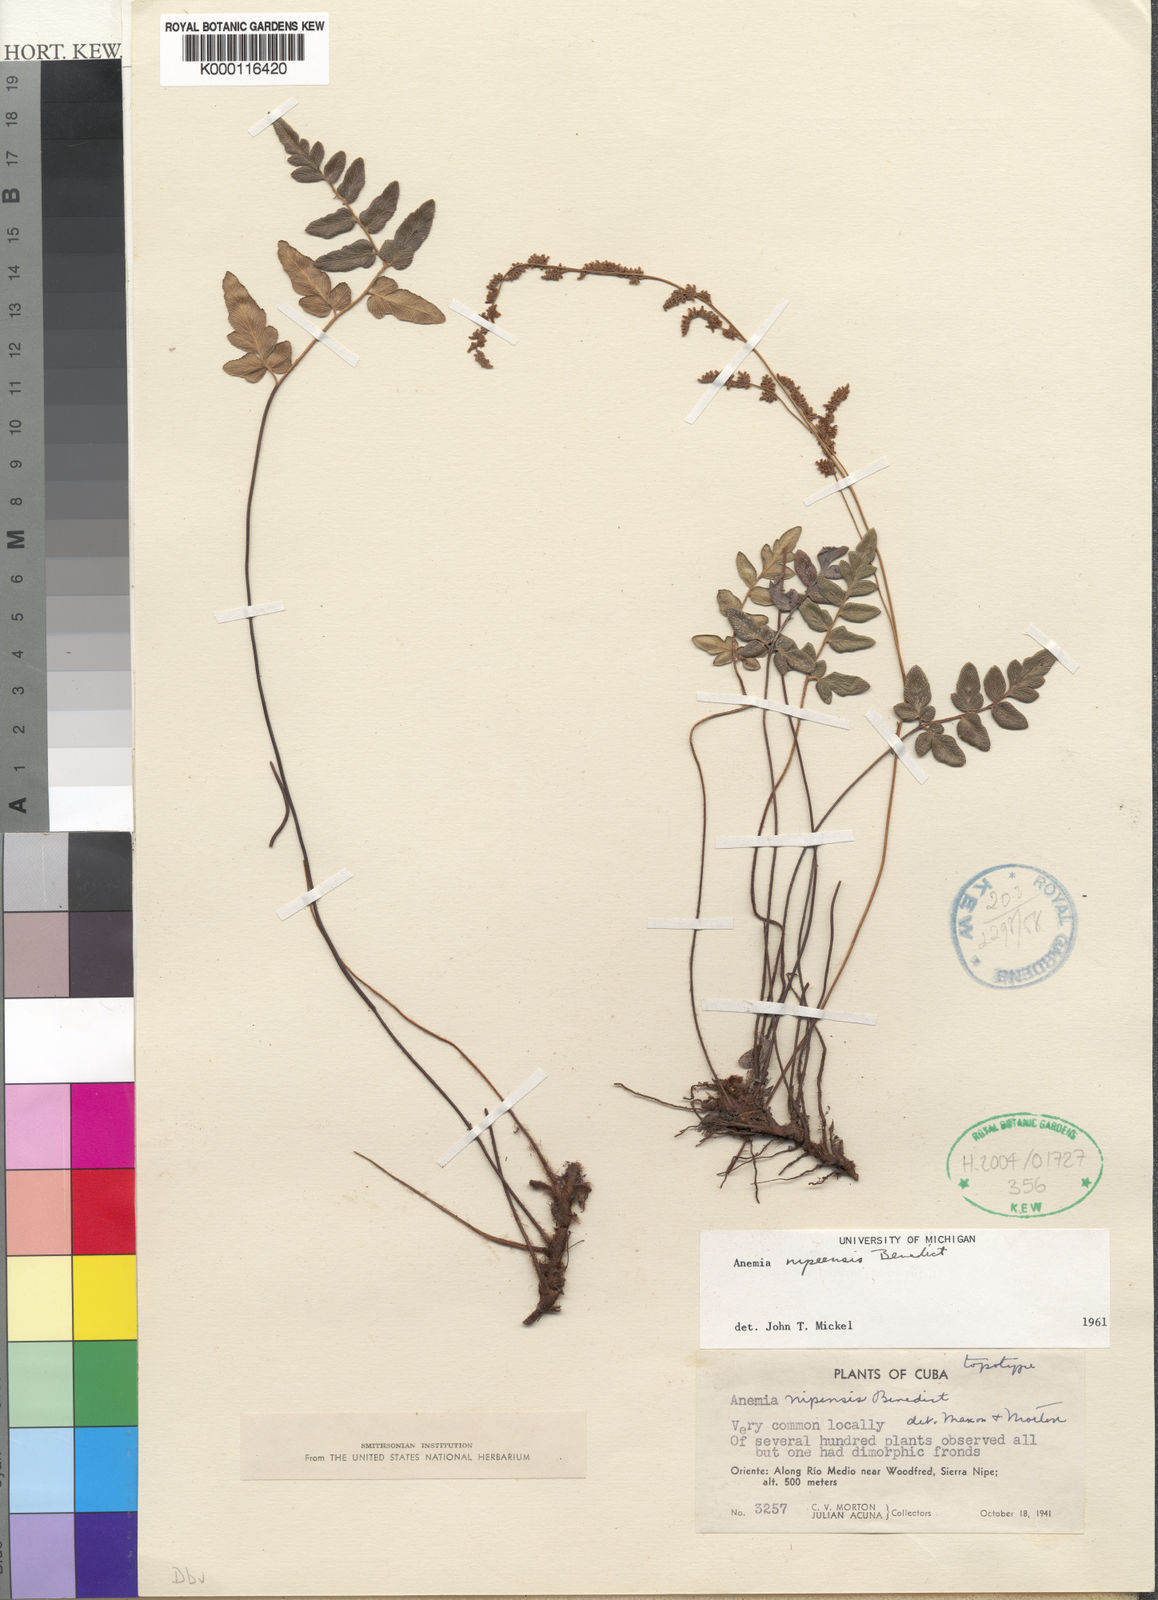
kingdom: Plantae
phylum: Tracheophyta
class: Polypodiopsida
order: Schizaeales
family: Anemiaceae
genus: Anemia
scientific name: Anemia coriacea
